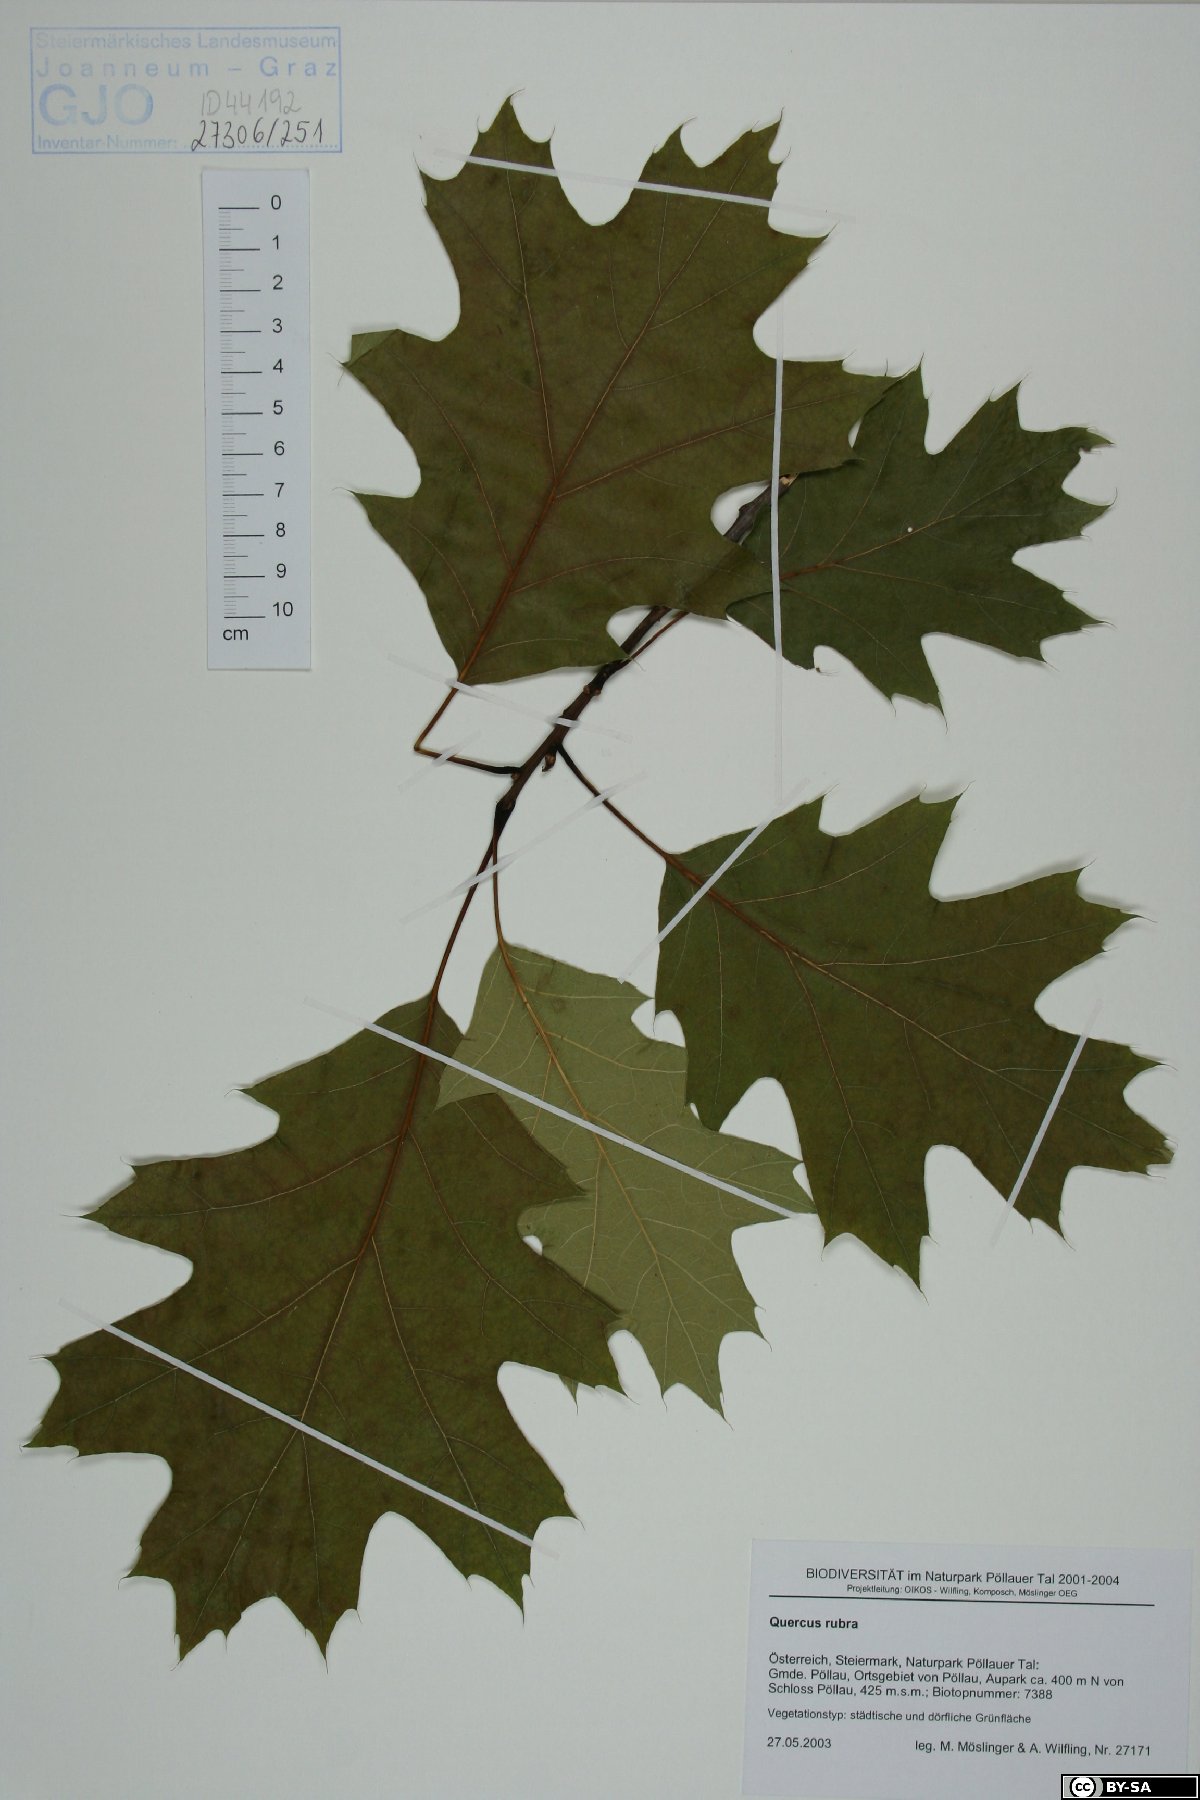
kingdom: Plantae
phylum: Tracheophyta
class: Magnoliopsida
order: Fagales
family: Fagaceae
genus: Quercus
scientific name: Quercus rubra
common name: Red oak
